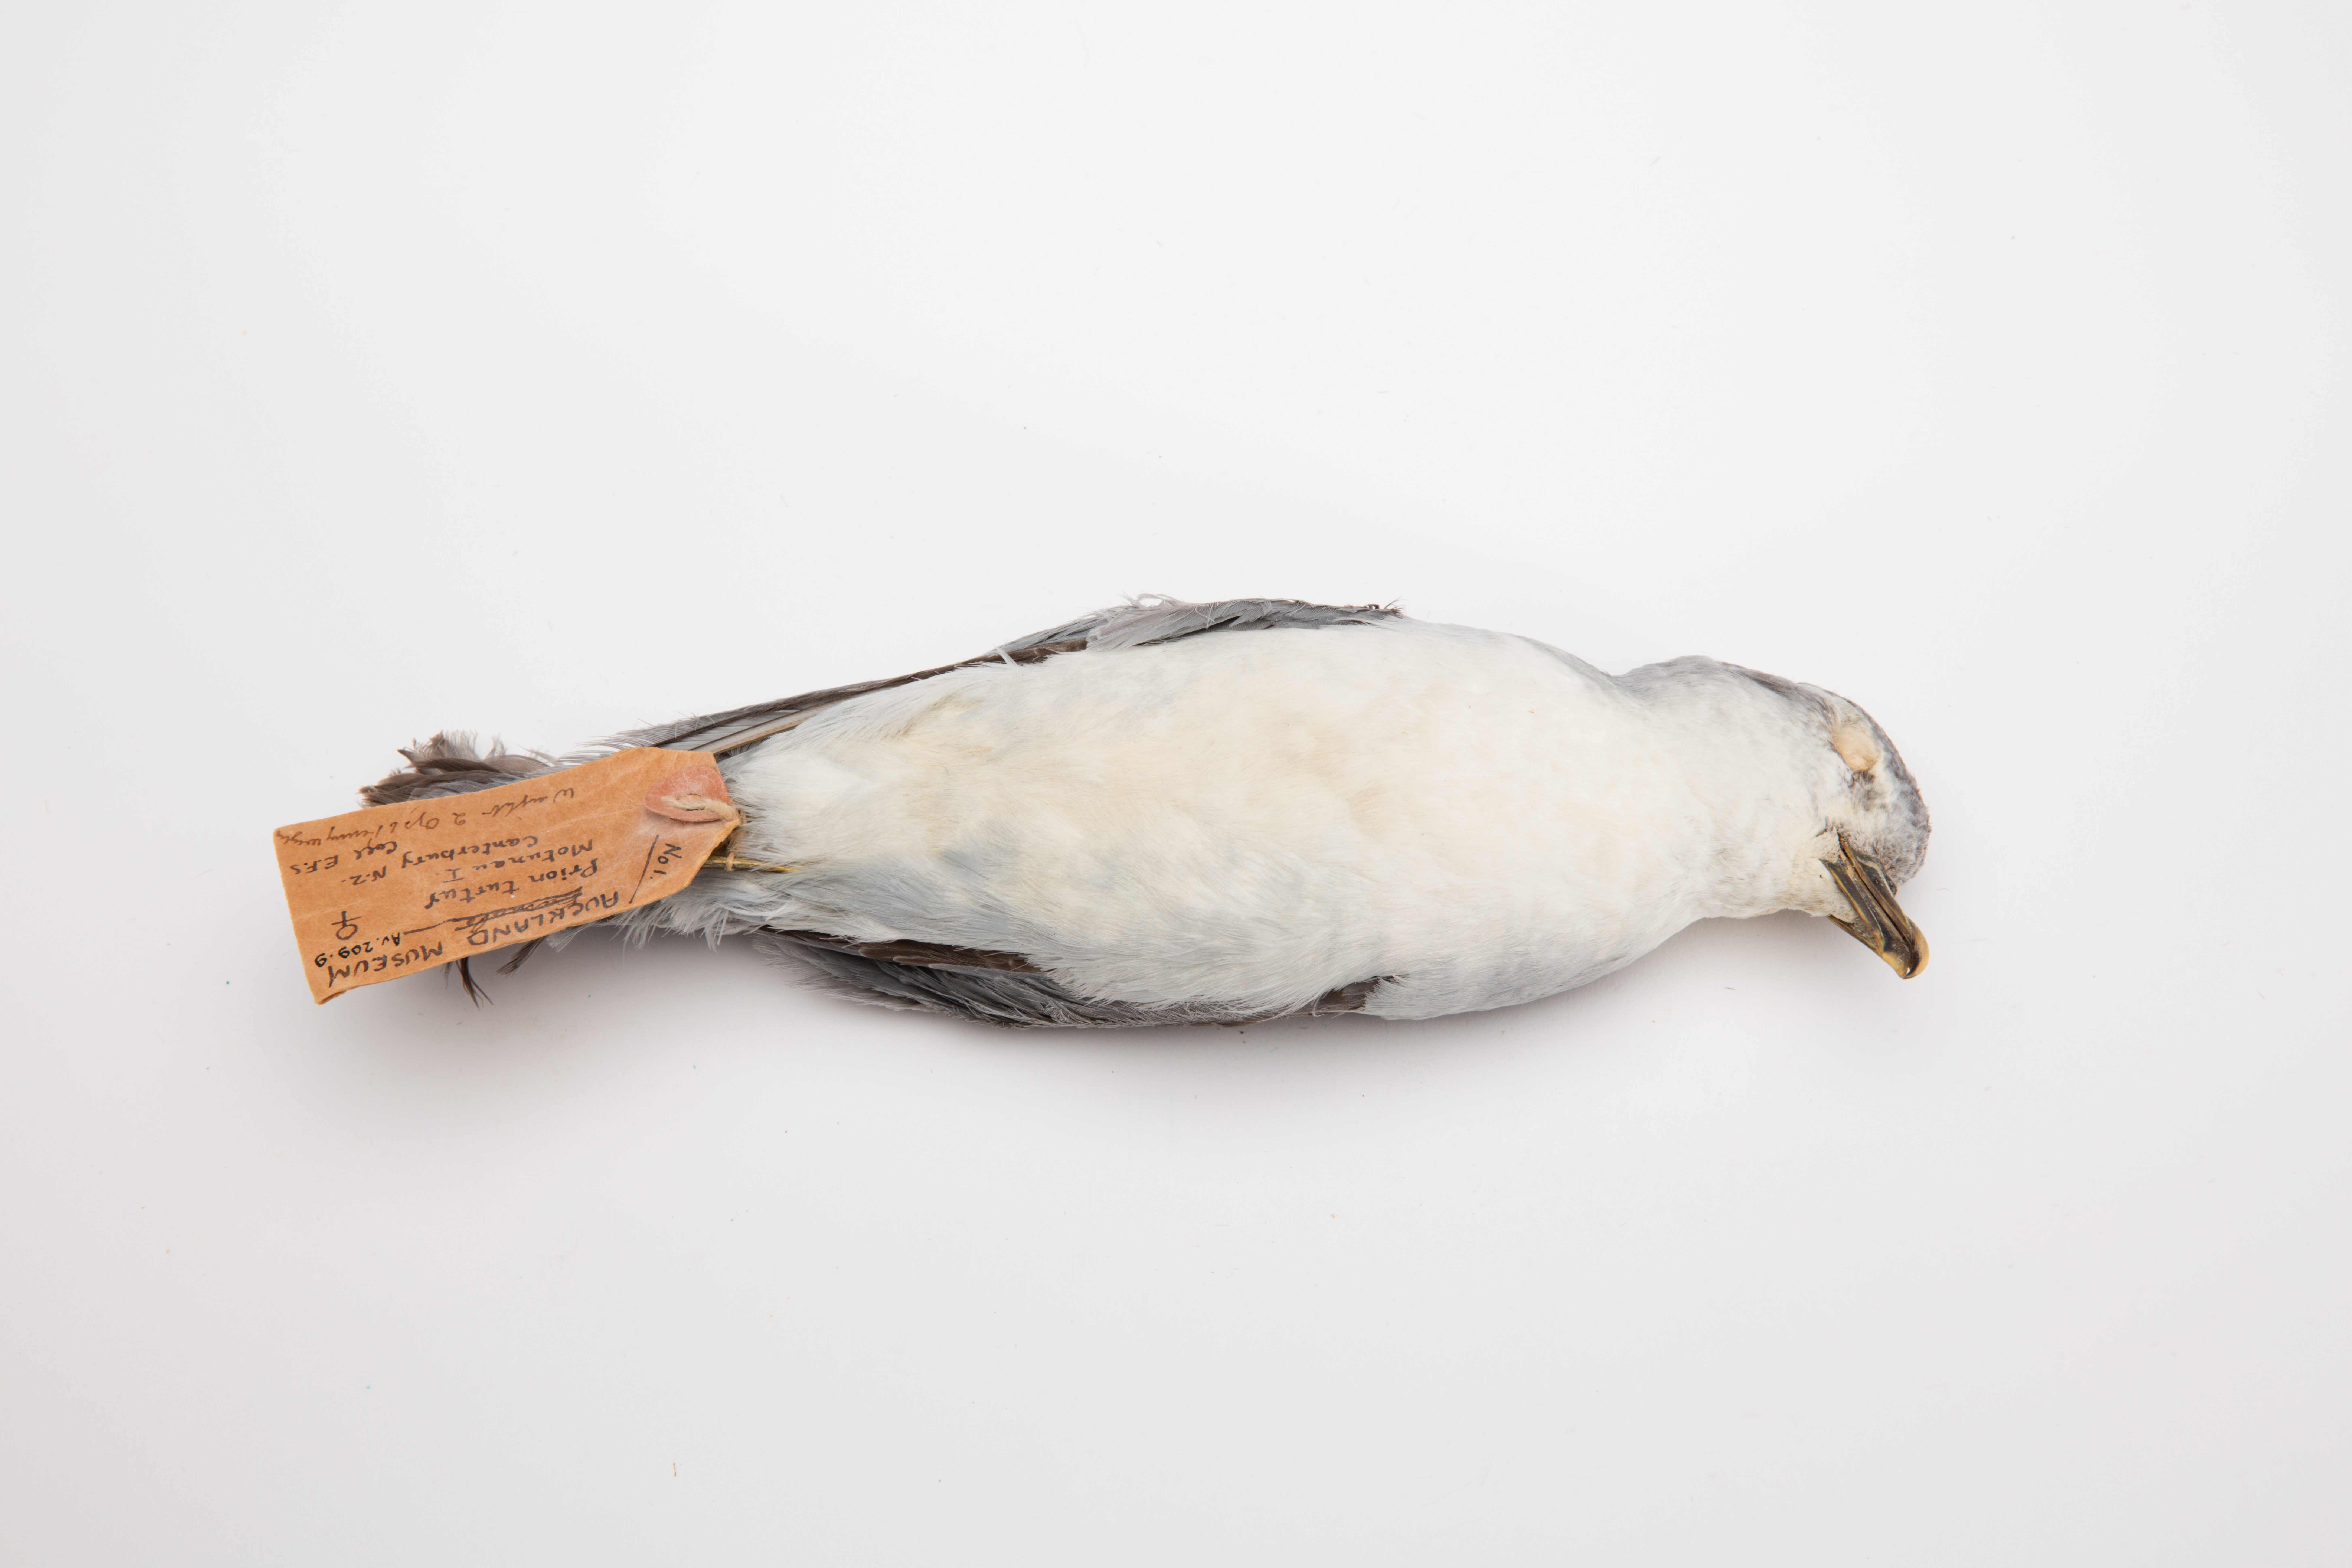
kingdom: Animalia
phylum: Chordata
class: Aves
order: Procellariiformes
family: Procellariidae
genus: Pachyptila
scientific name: Pachyptila turtur
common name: Fairy prion
